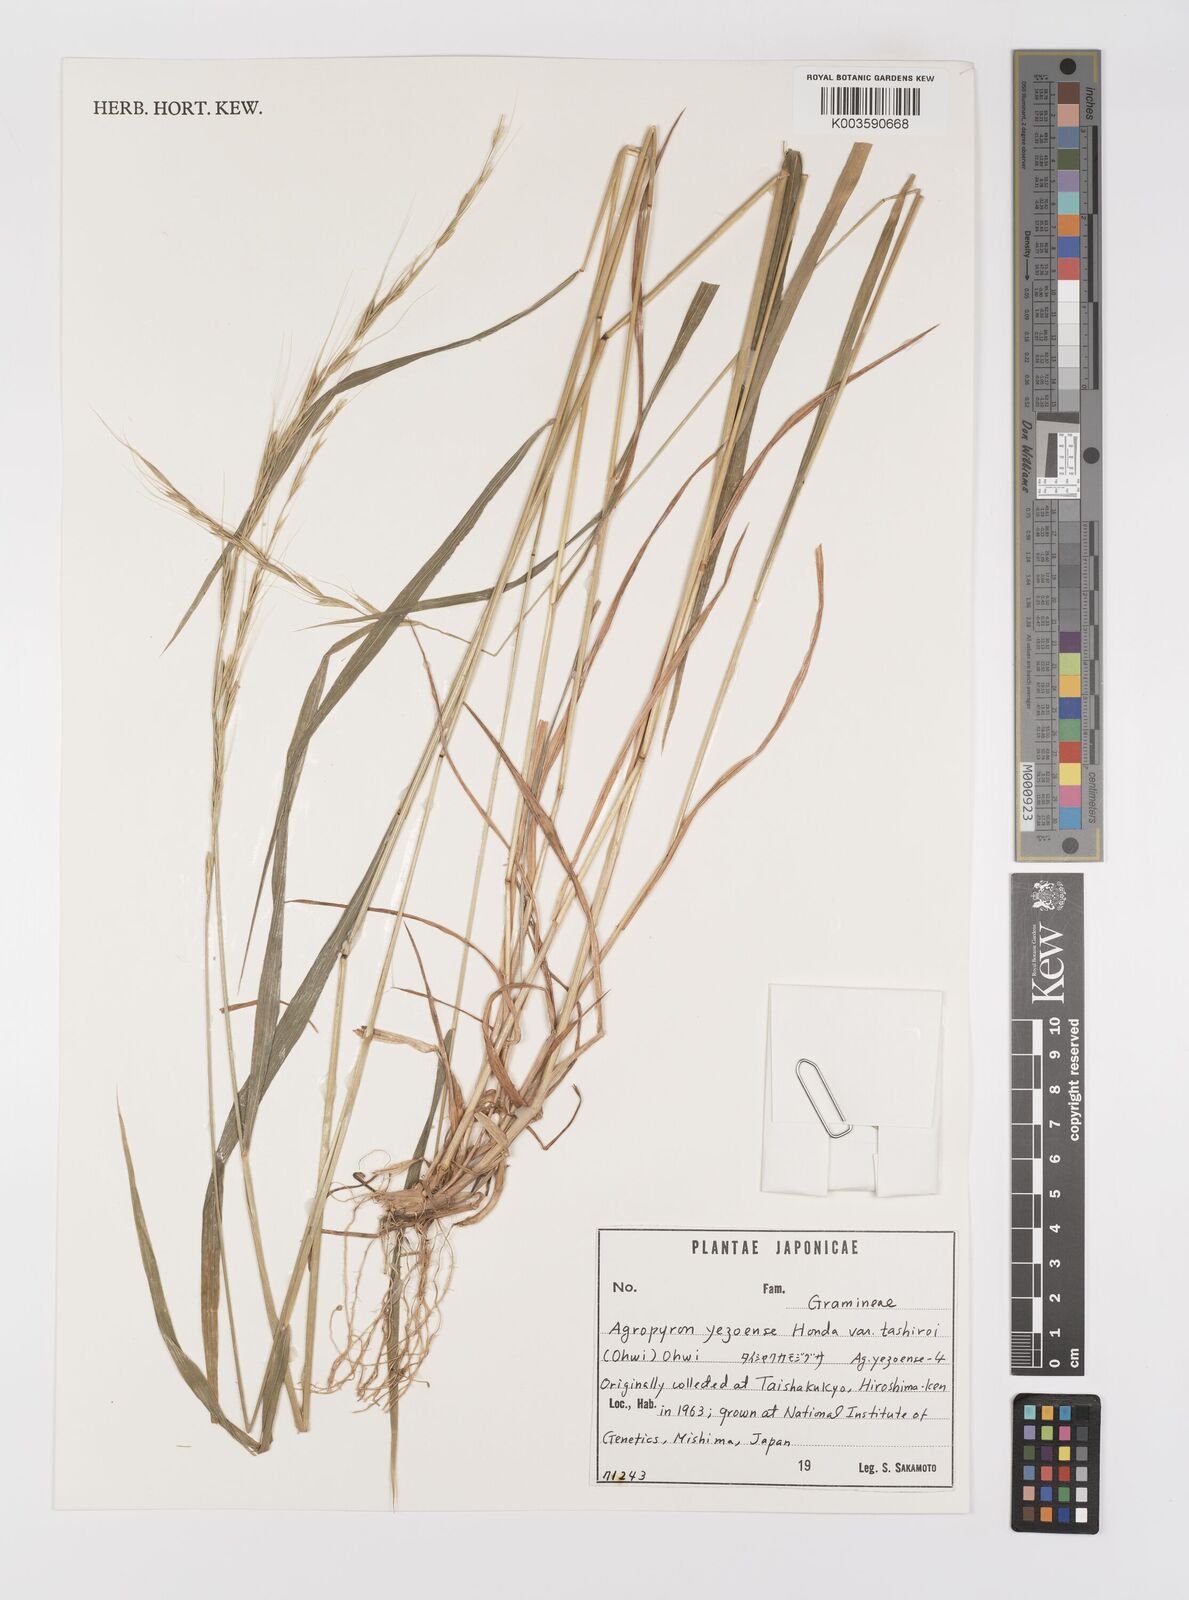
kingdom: Plantae
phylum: Tracheophyta
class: Liliopsida
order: Poales
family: Poaceae
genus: Elymus
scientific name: Elymus nipponicus
